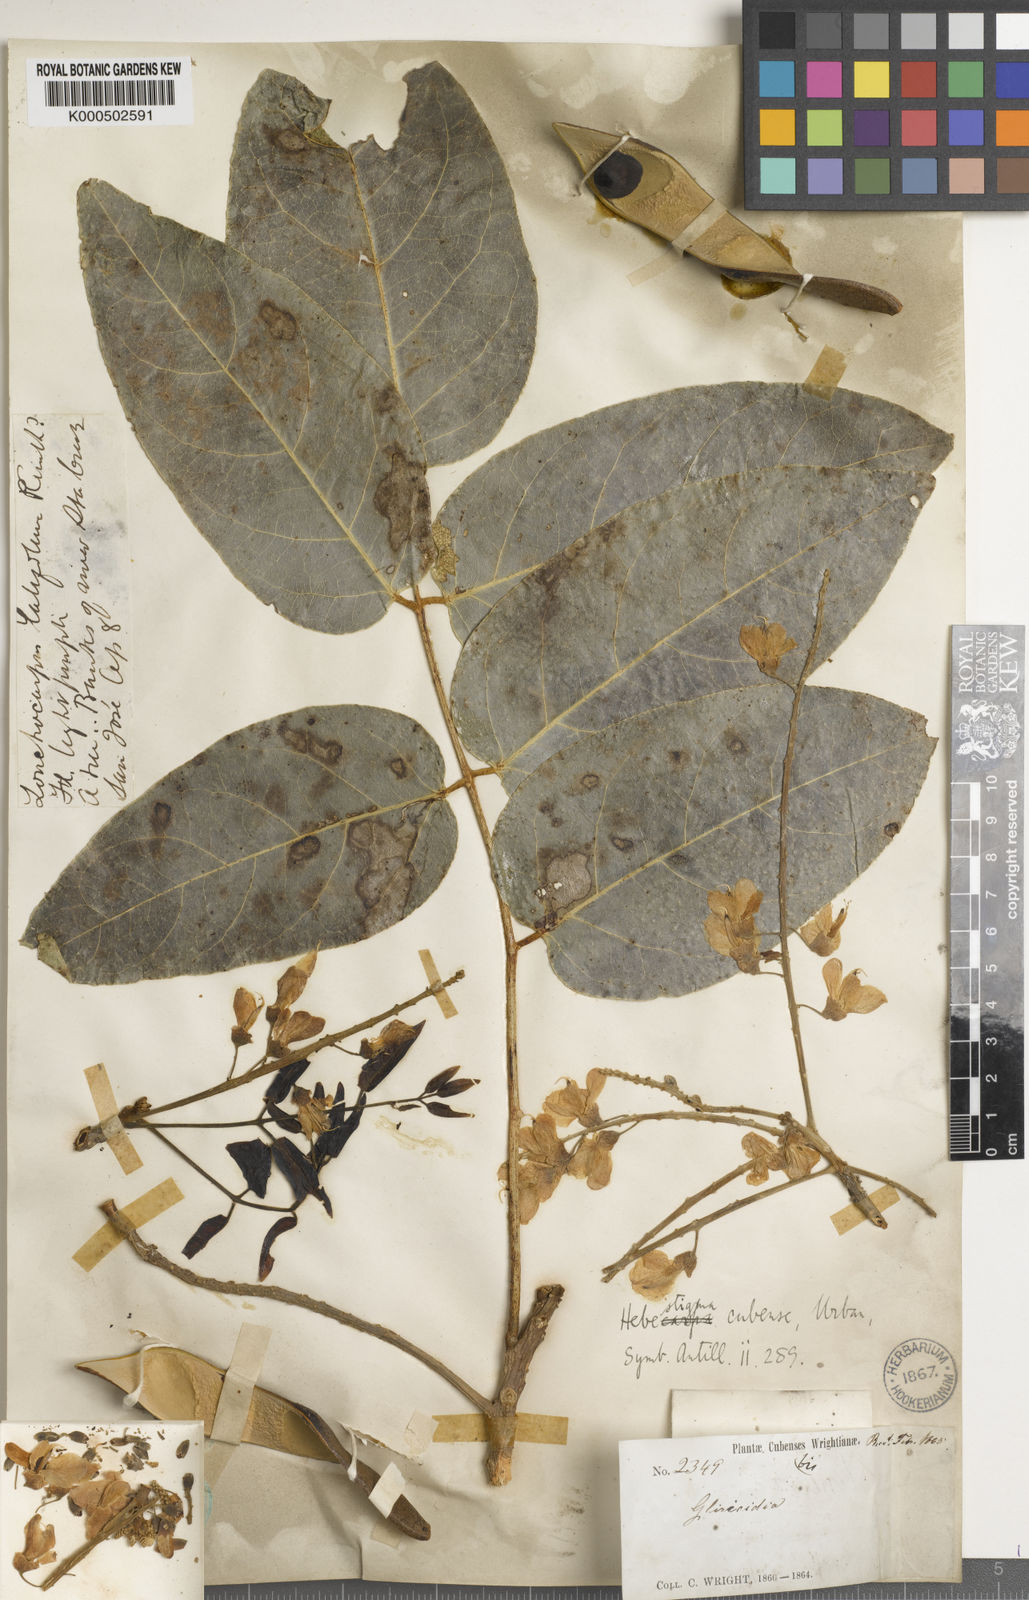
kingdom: Plantae
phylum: Tracheophyta
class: Magnoliopsida
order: Fabales
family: Fabaceae
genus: Hebestigma
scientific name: Hebestigma cubense
